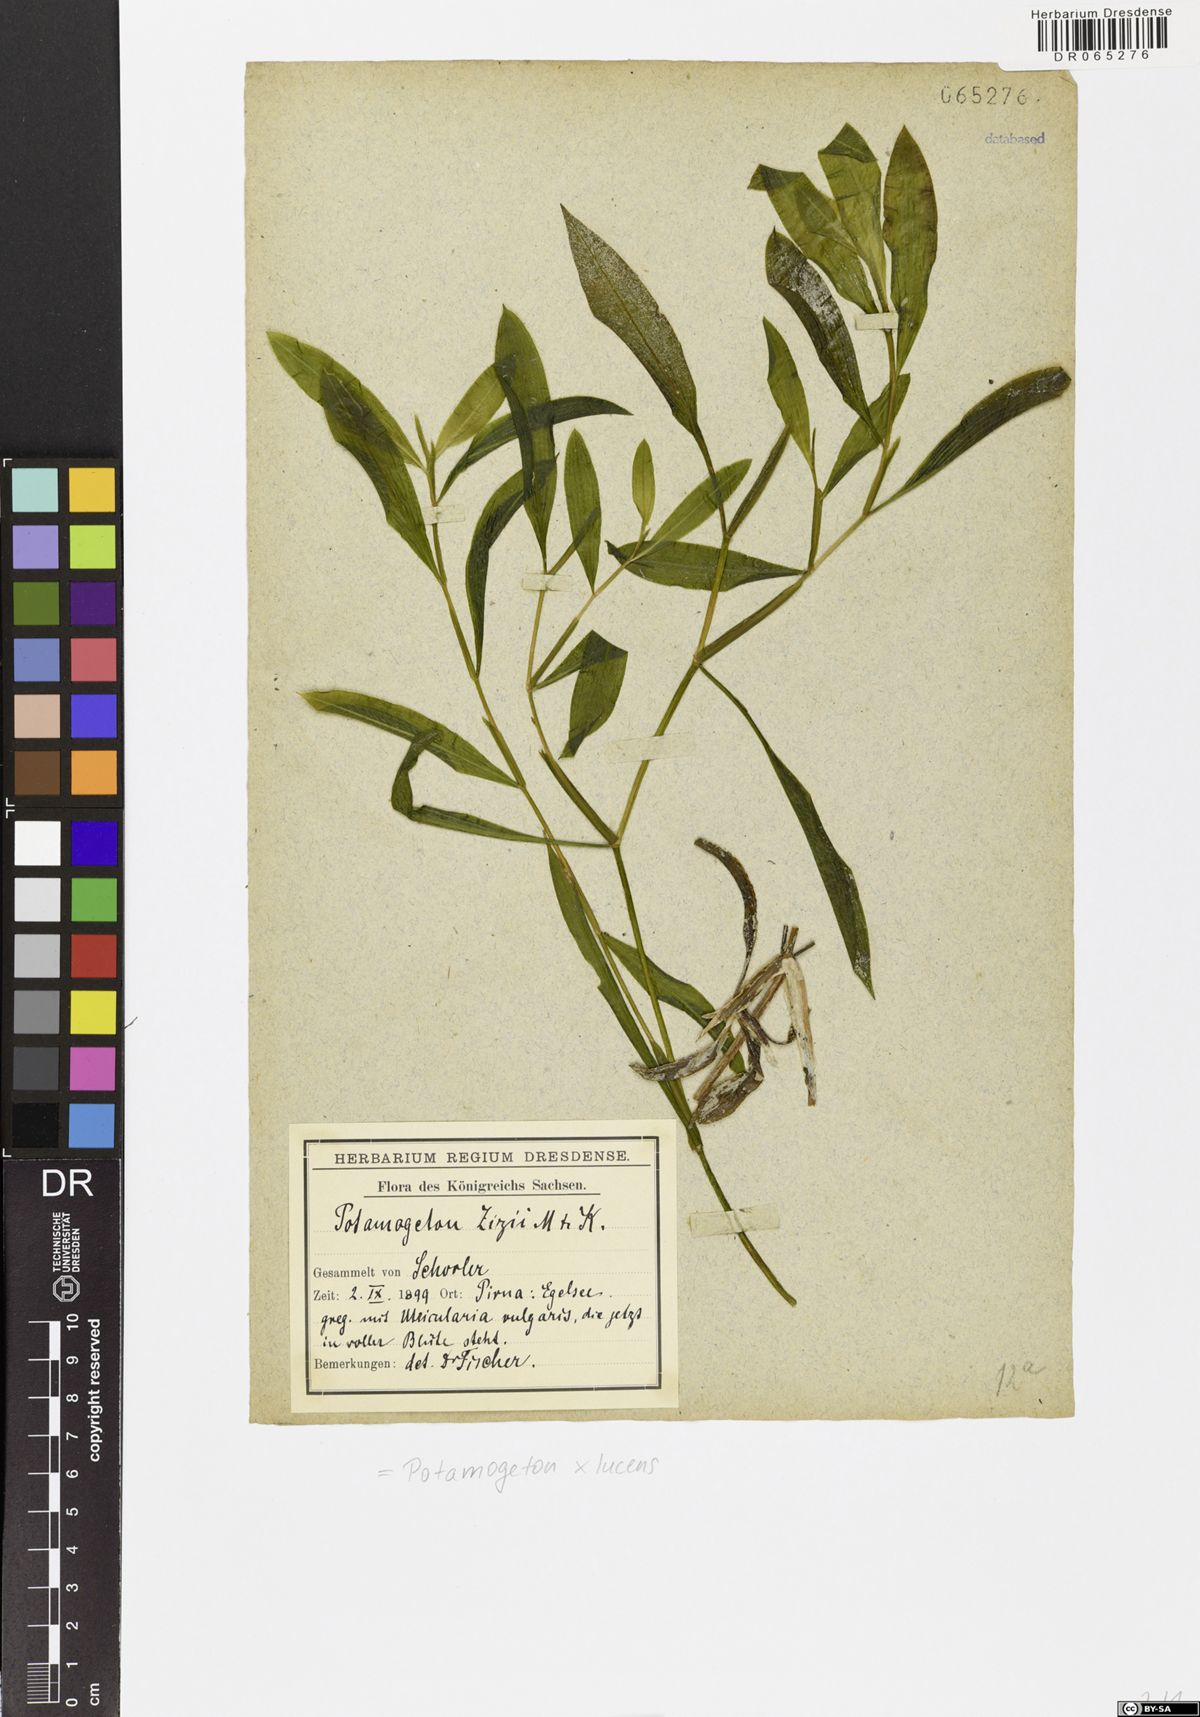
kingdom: Plantae
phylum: Tracheophyta
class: Liliopsida
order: Alismatales
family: Potamogetonaceae
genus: Potamogeton
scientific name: Potamogeton lucens
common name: Shining pondweed
